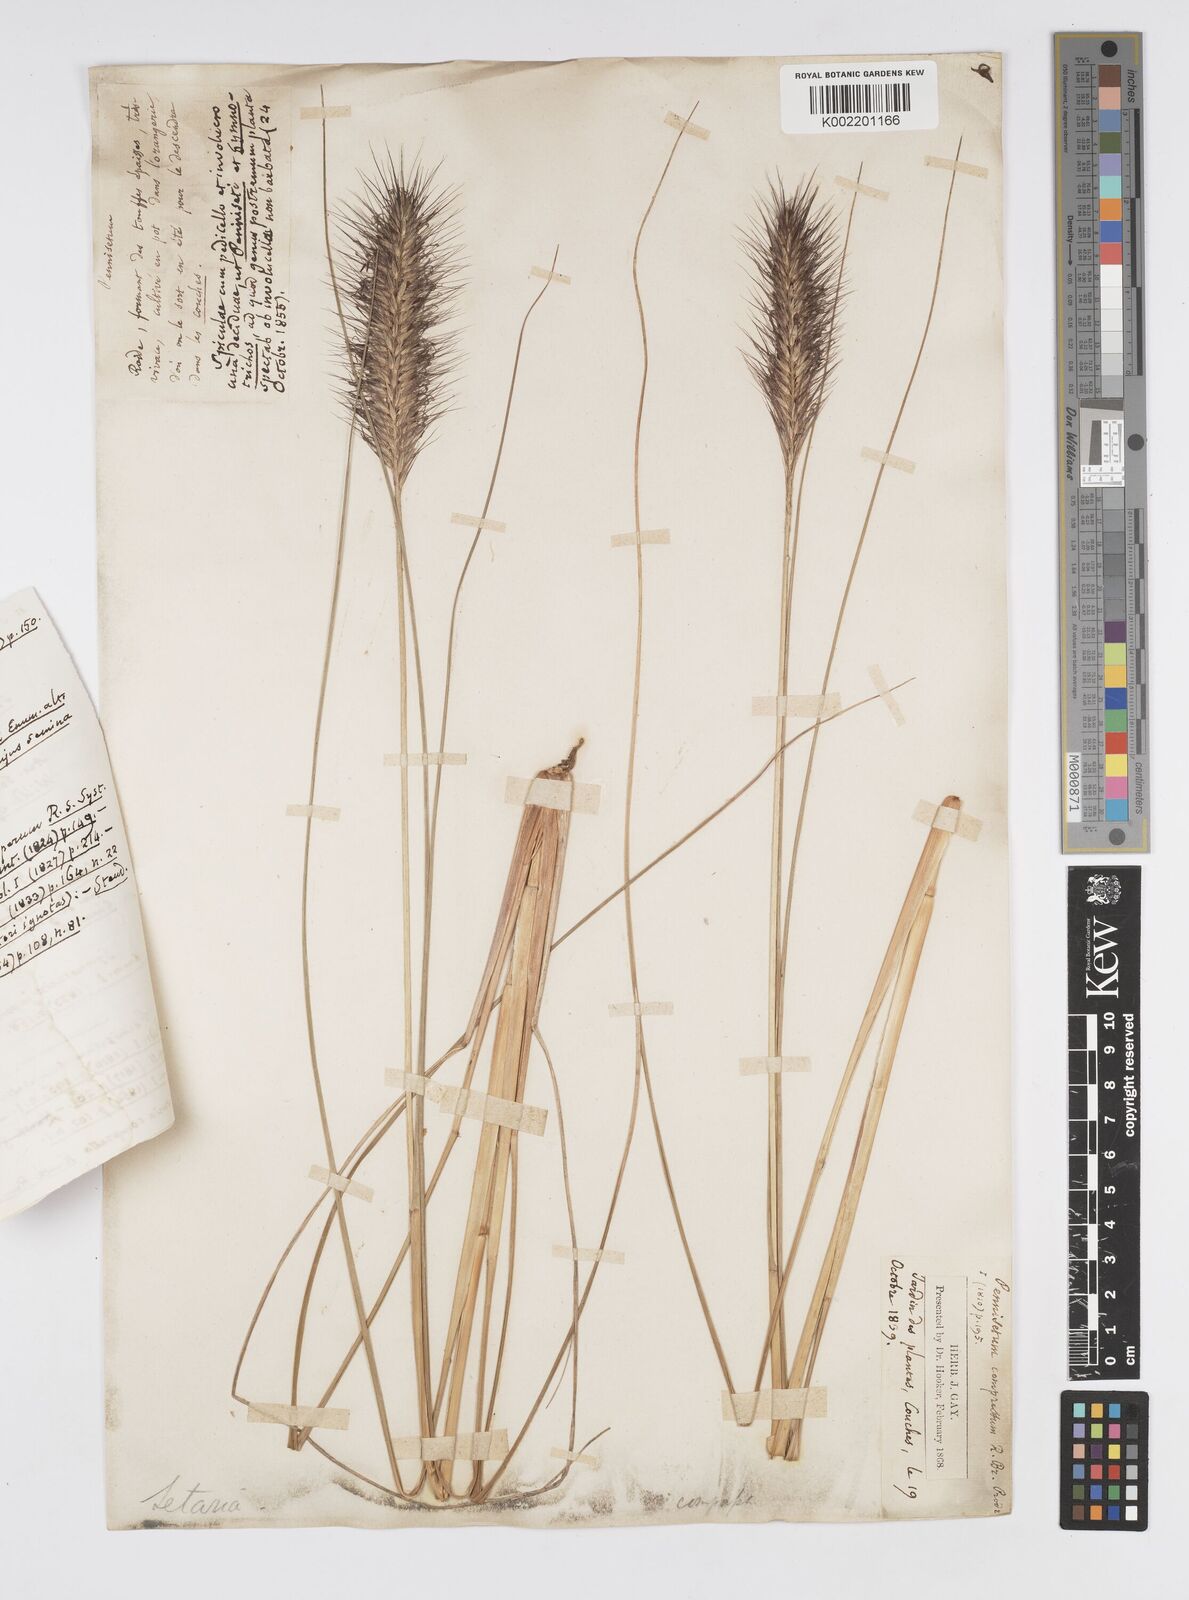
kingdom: Plantae
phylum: Tracheophyta
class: Liliopsida
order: Poales
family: Poaceae
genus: Cenchrus
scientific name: Cenchrus alopecuroides
